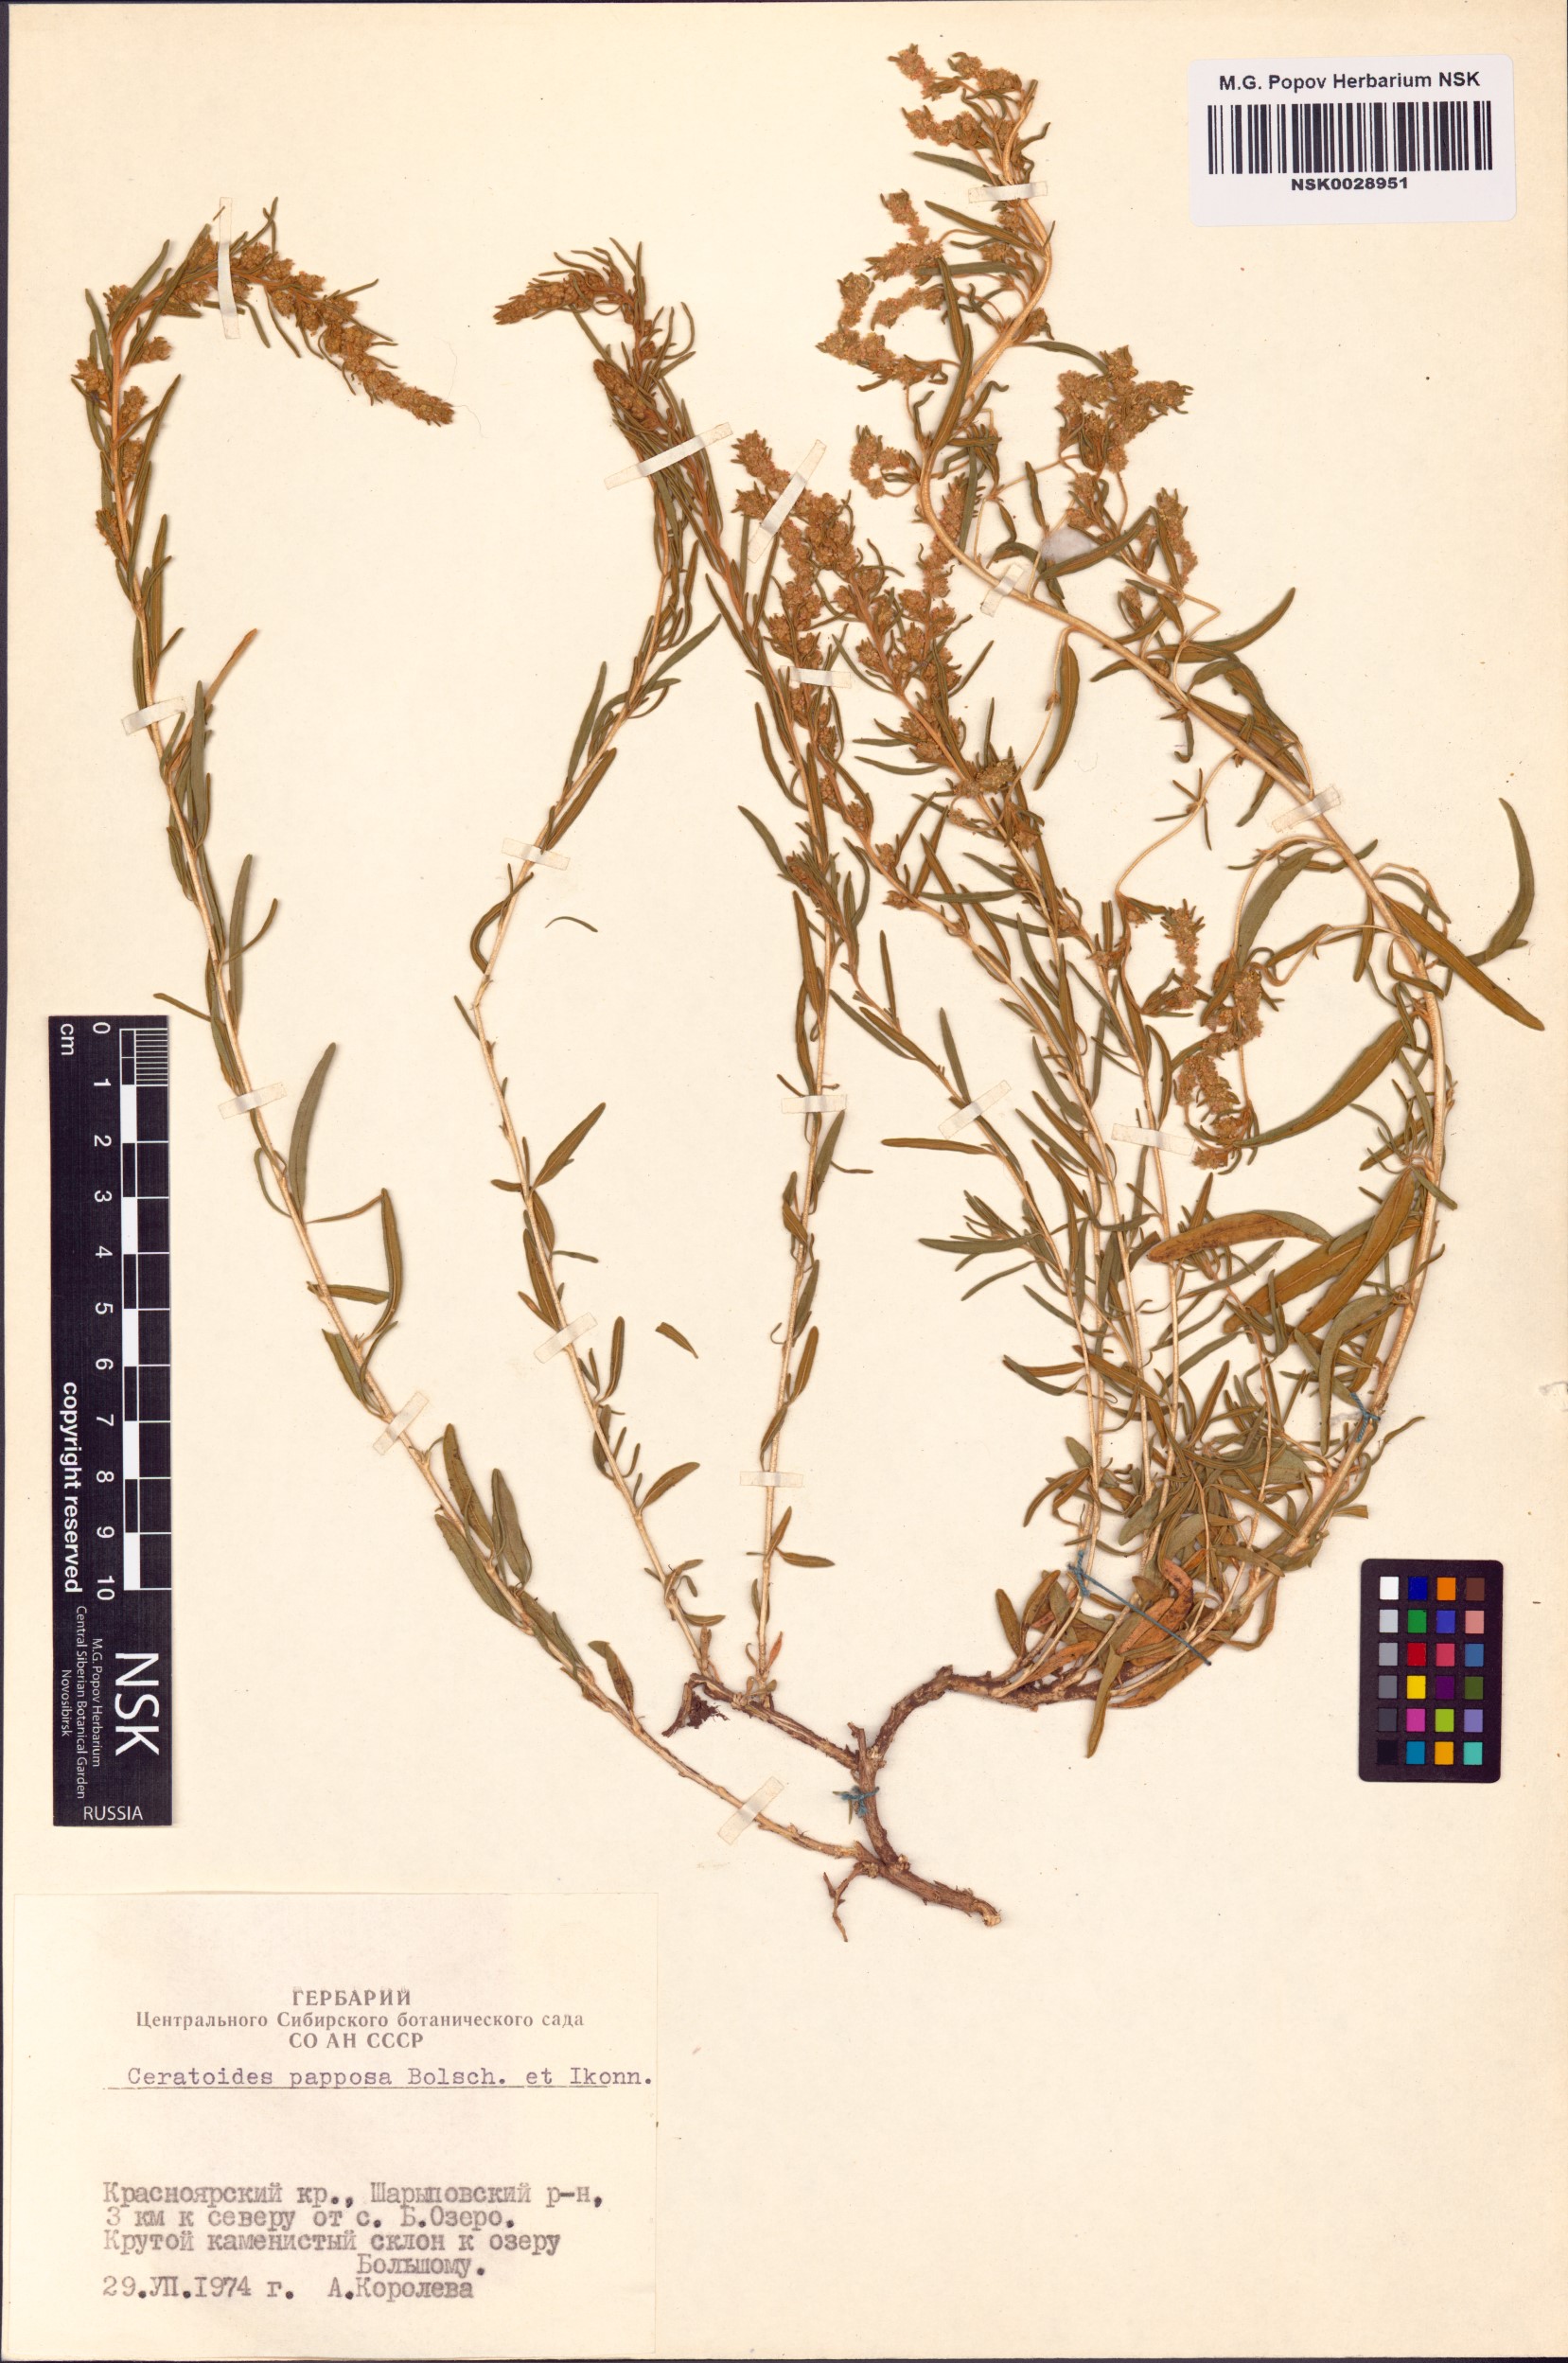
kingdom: Plantae
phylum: Tracheophyta
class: Magnoliopsida
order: Caryophyllales
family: Amaranthaceae
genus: Krascheninnikovia
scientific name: Krascheninnikovia ceratoides
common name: Pamirian winterfat
